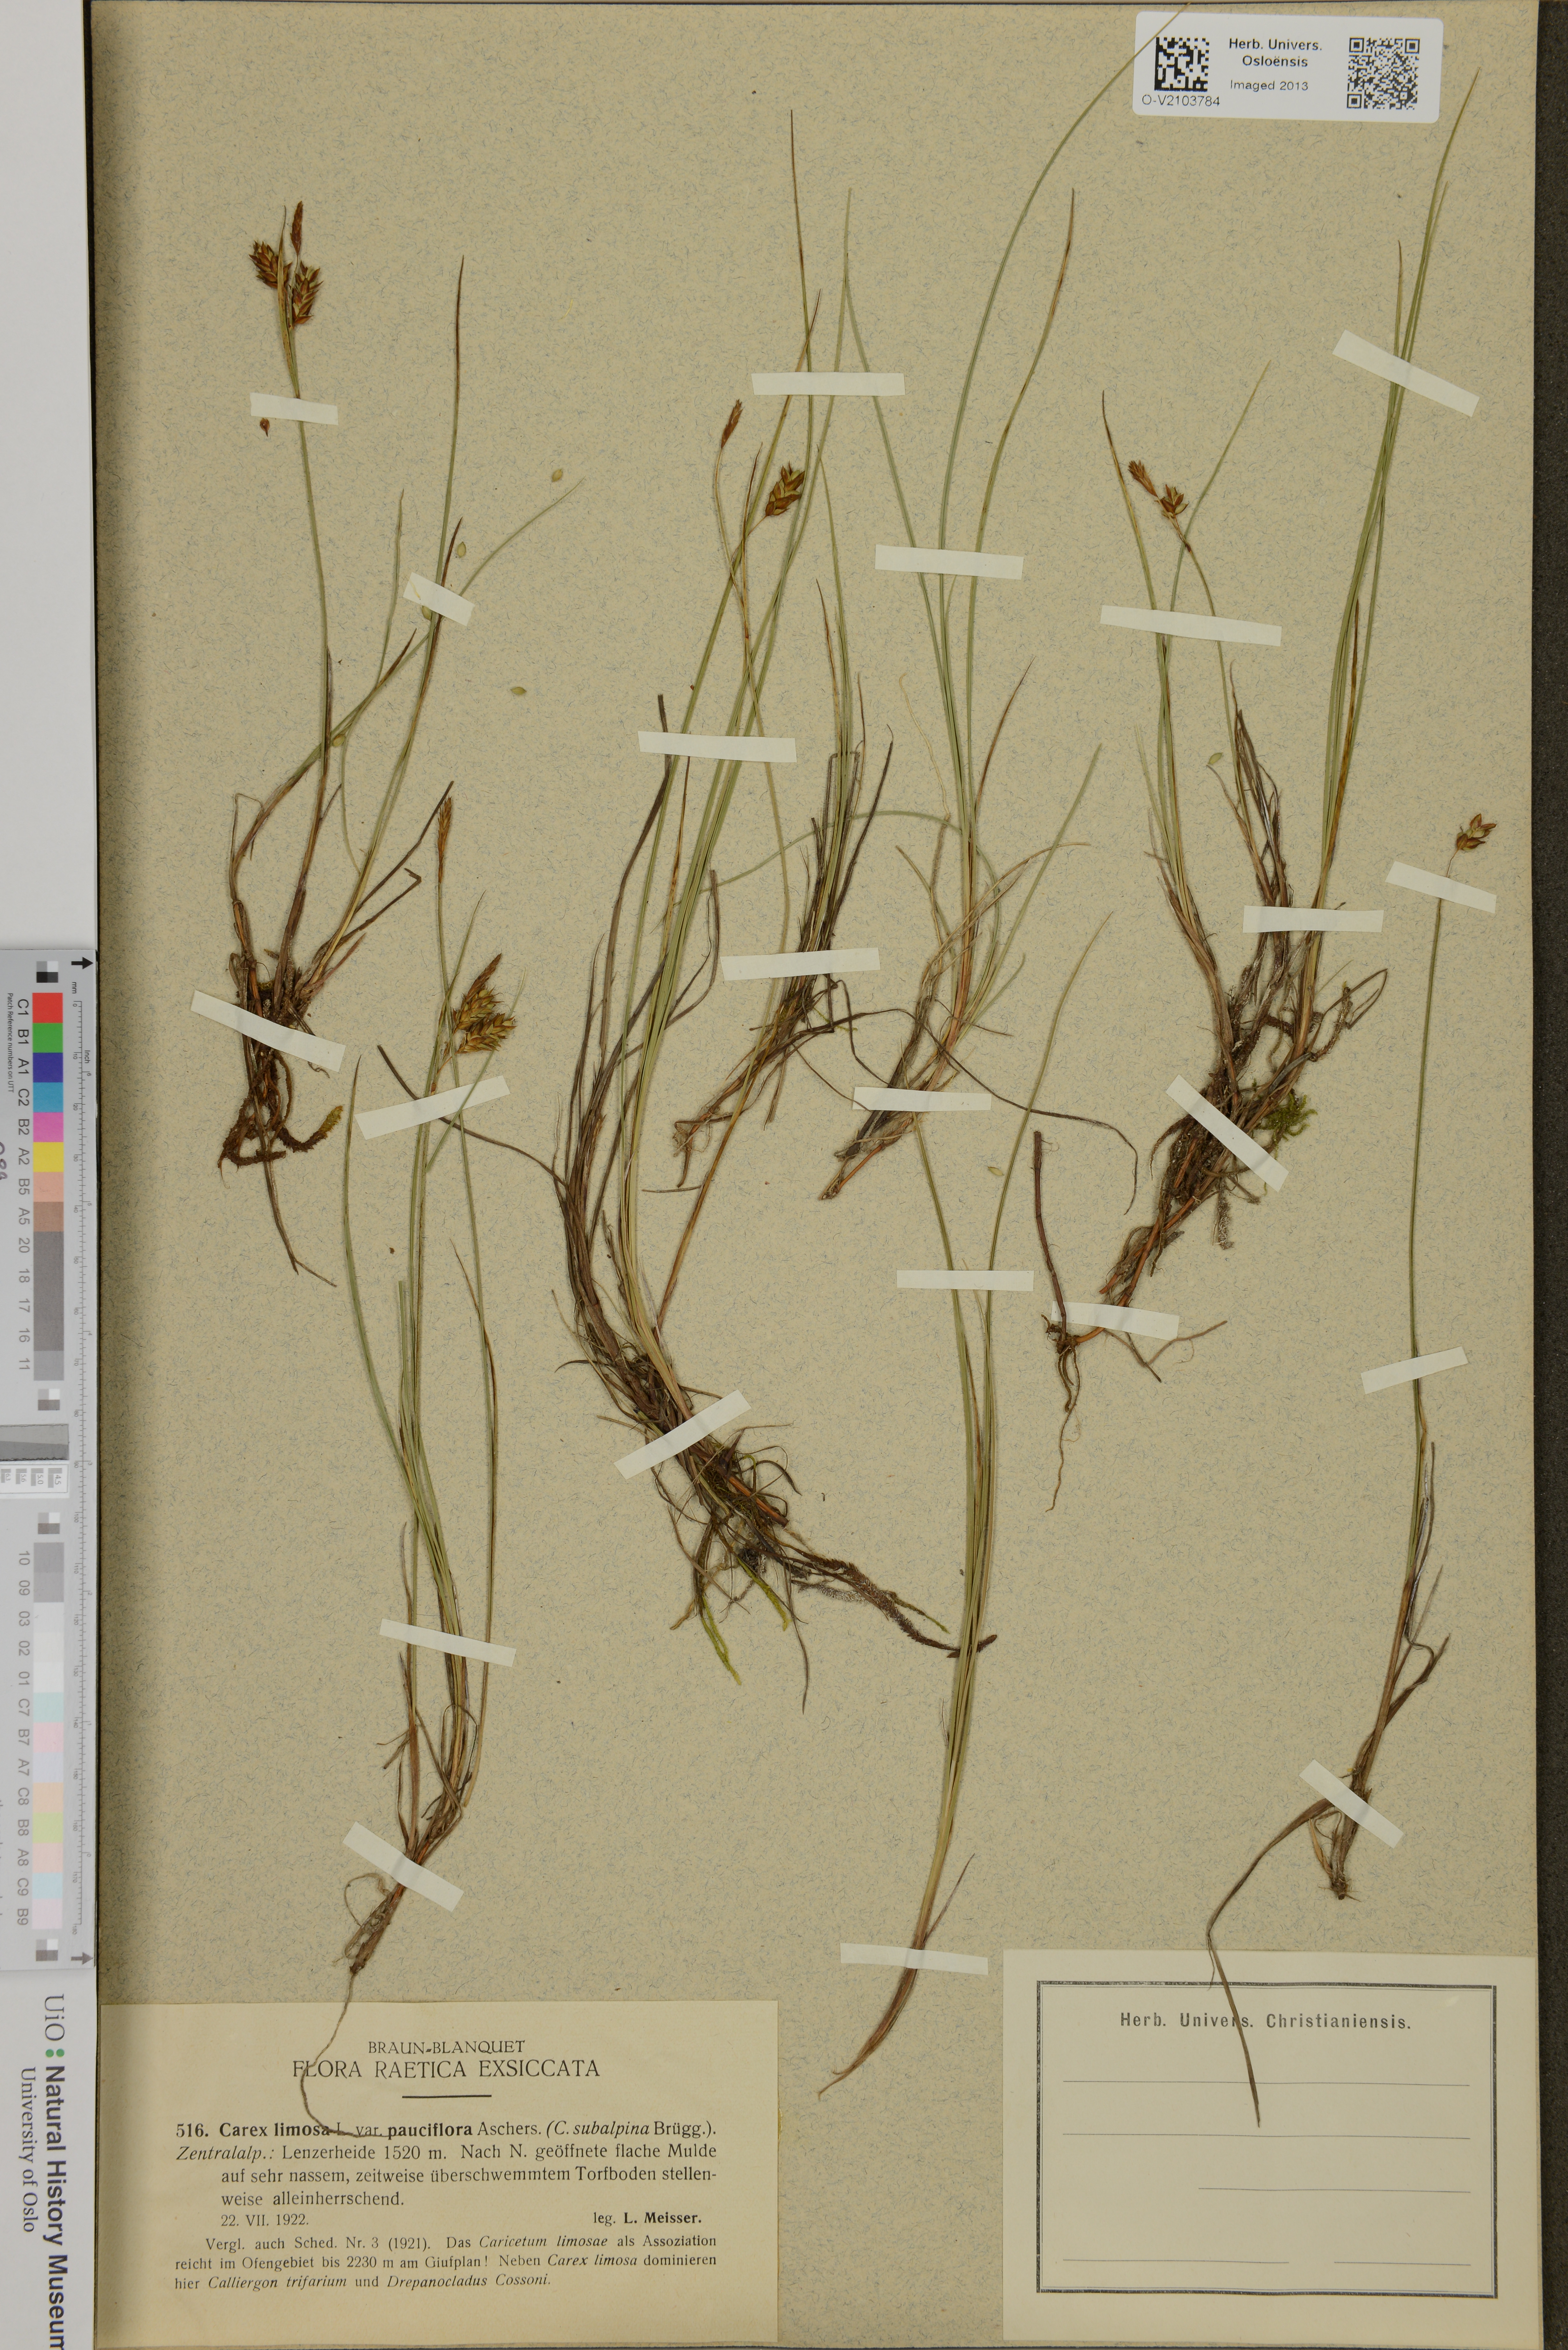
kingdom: Plantae
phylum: Tracheophyta
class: Liliopsida
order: Poales
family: Cyperaceae
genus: Carex
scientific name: Carex limosa
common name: Bog sedge
